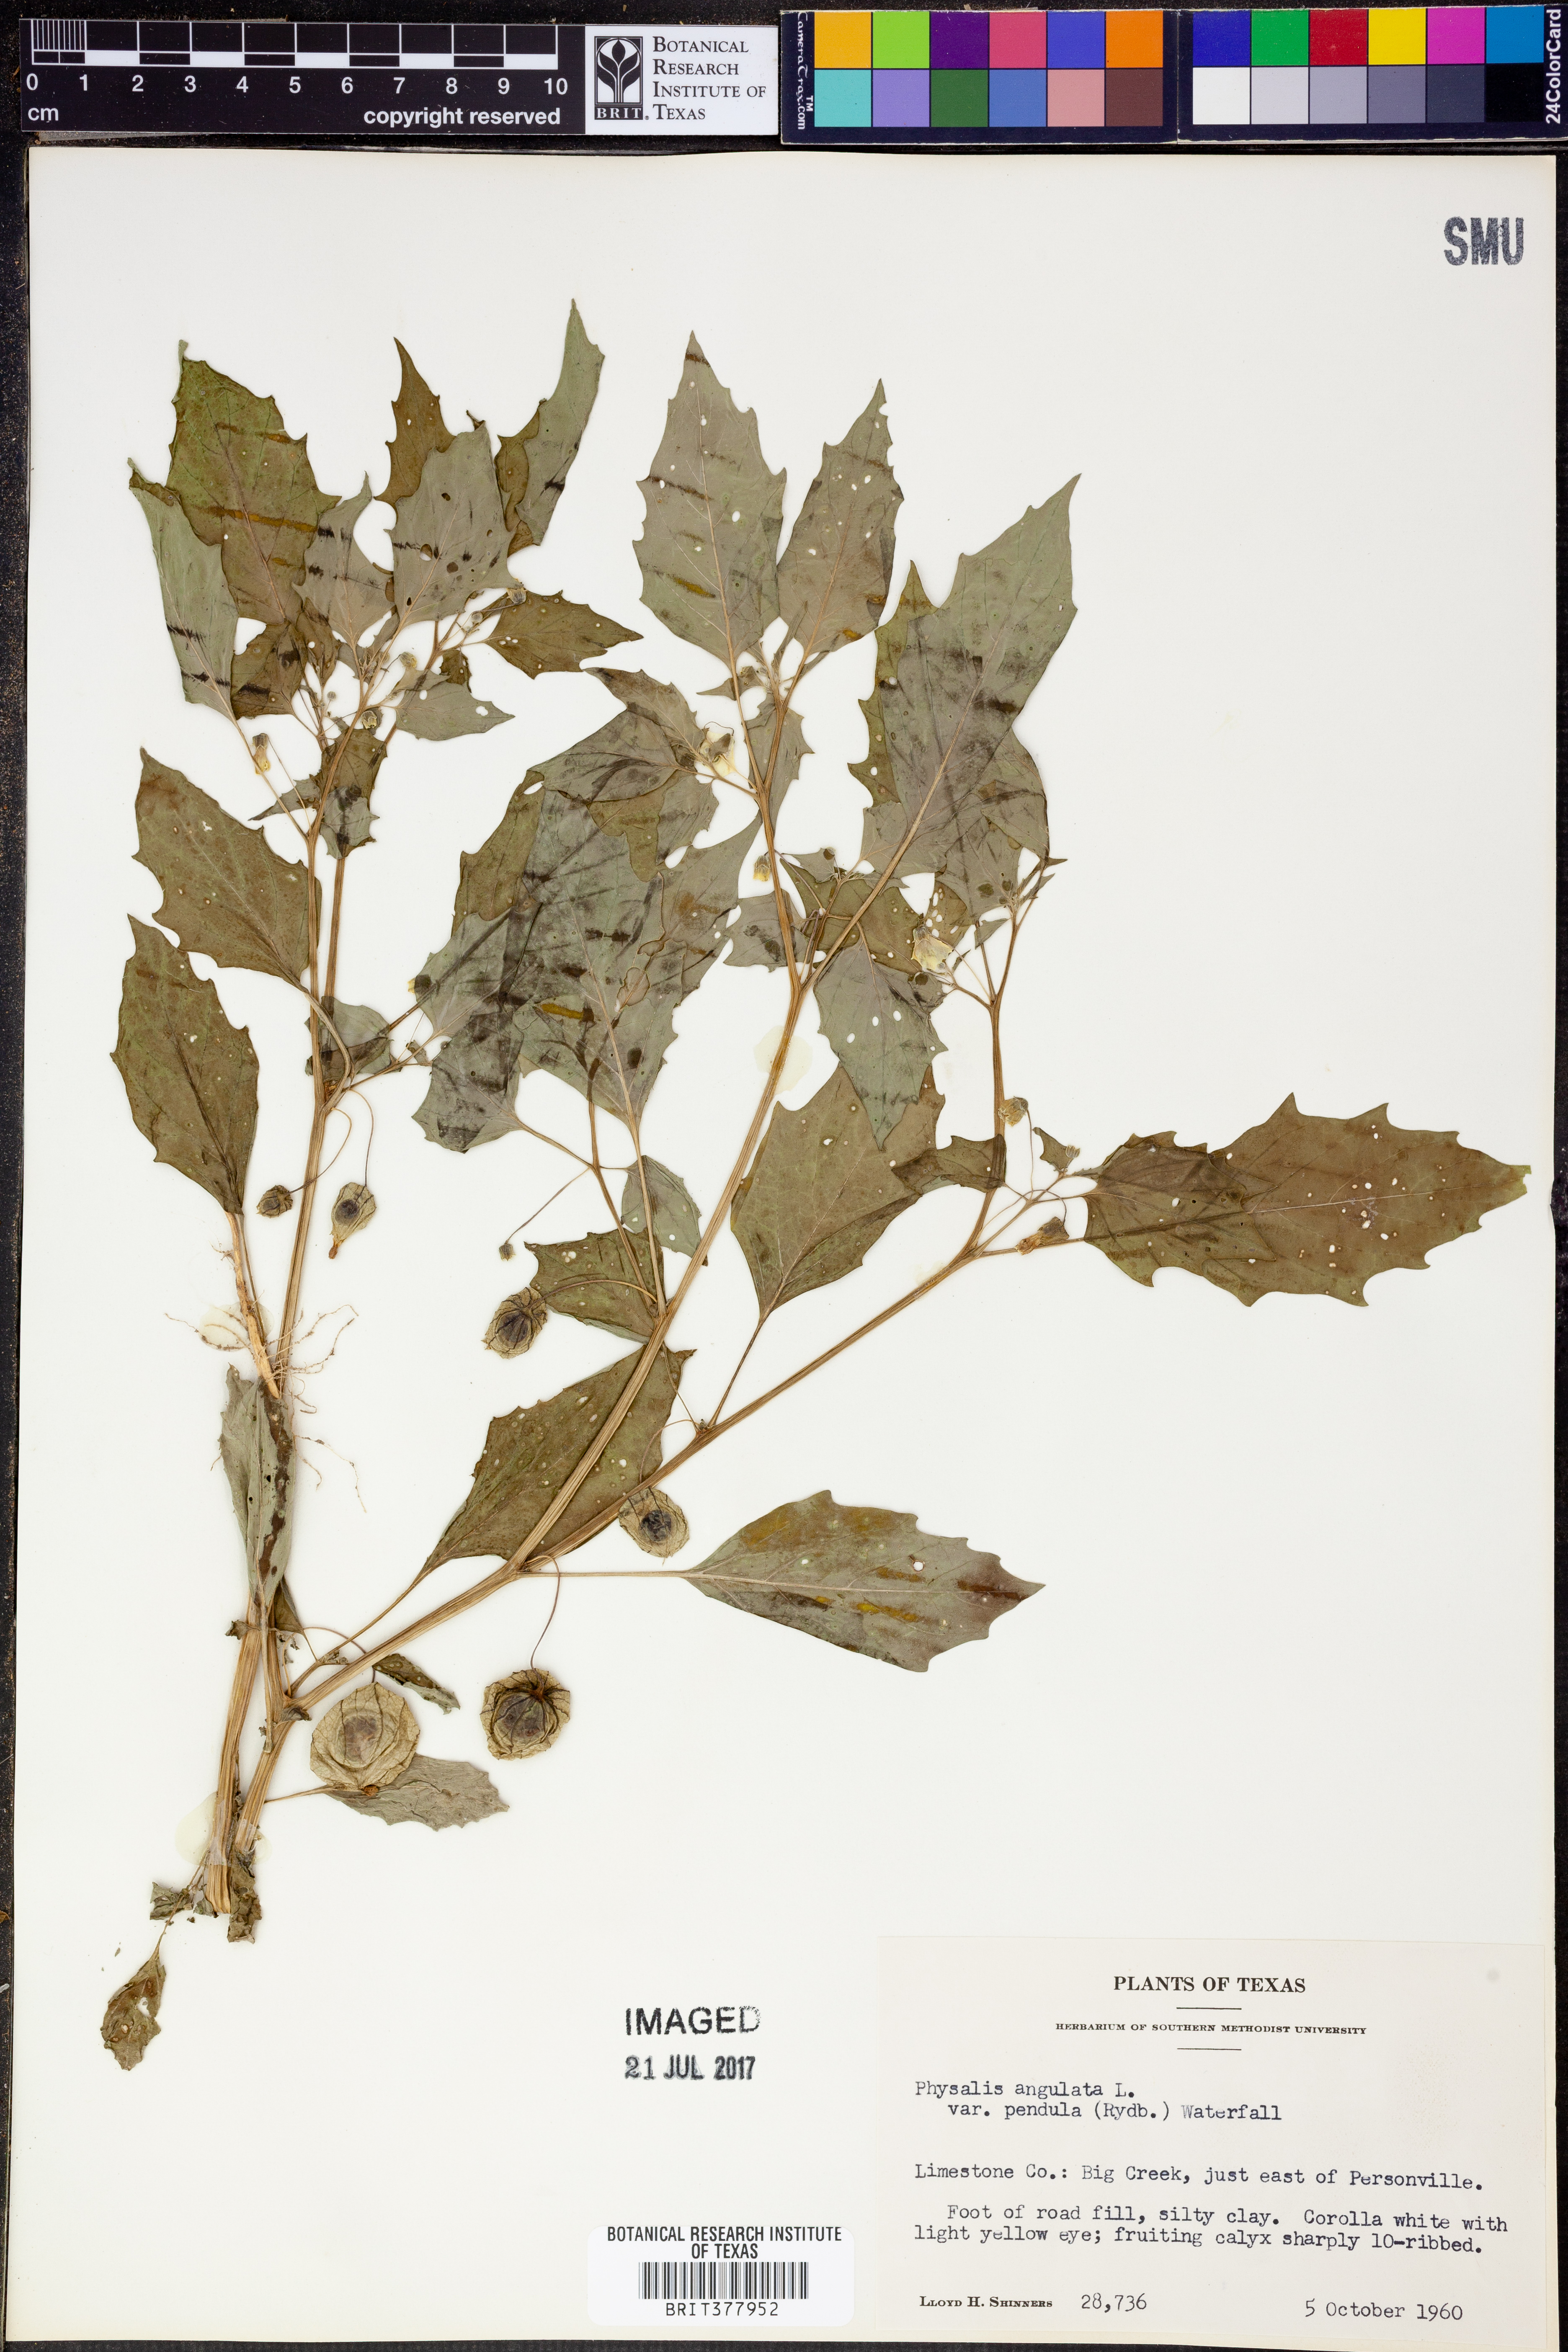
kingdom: Plantae
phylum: Tracheophyta
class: Magnoliopsida
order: Solanales
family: Solanaceae
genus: Physalis
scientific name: Physalis angulata
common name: Angular winter-cherry
